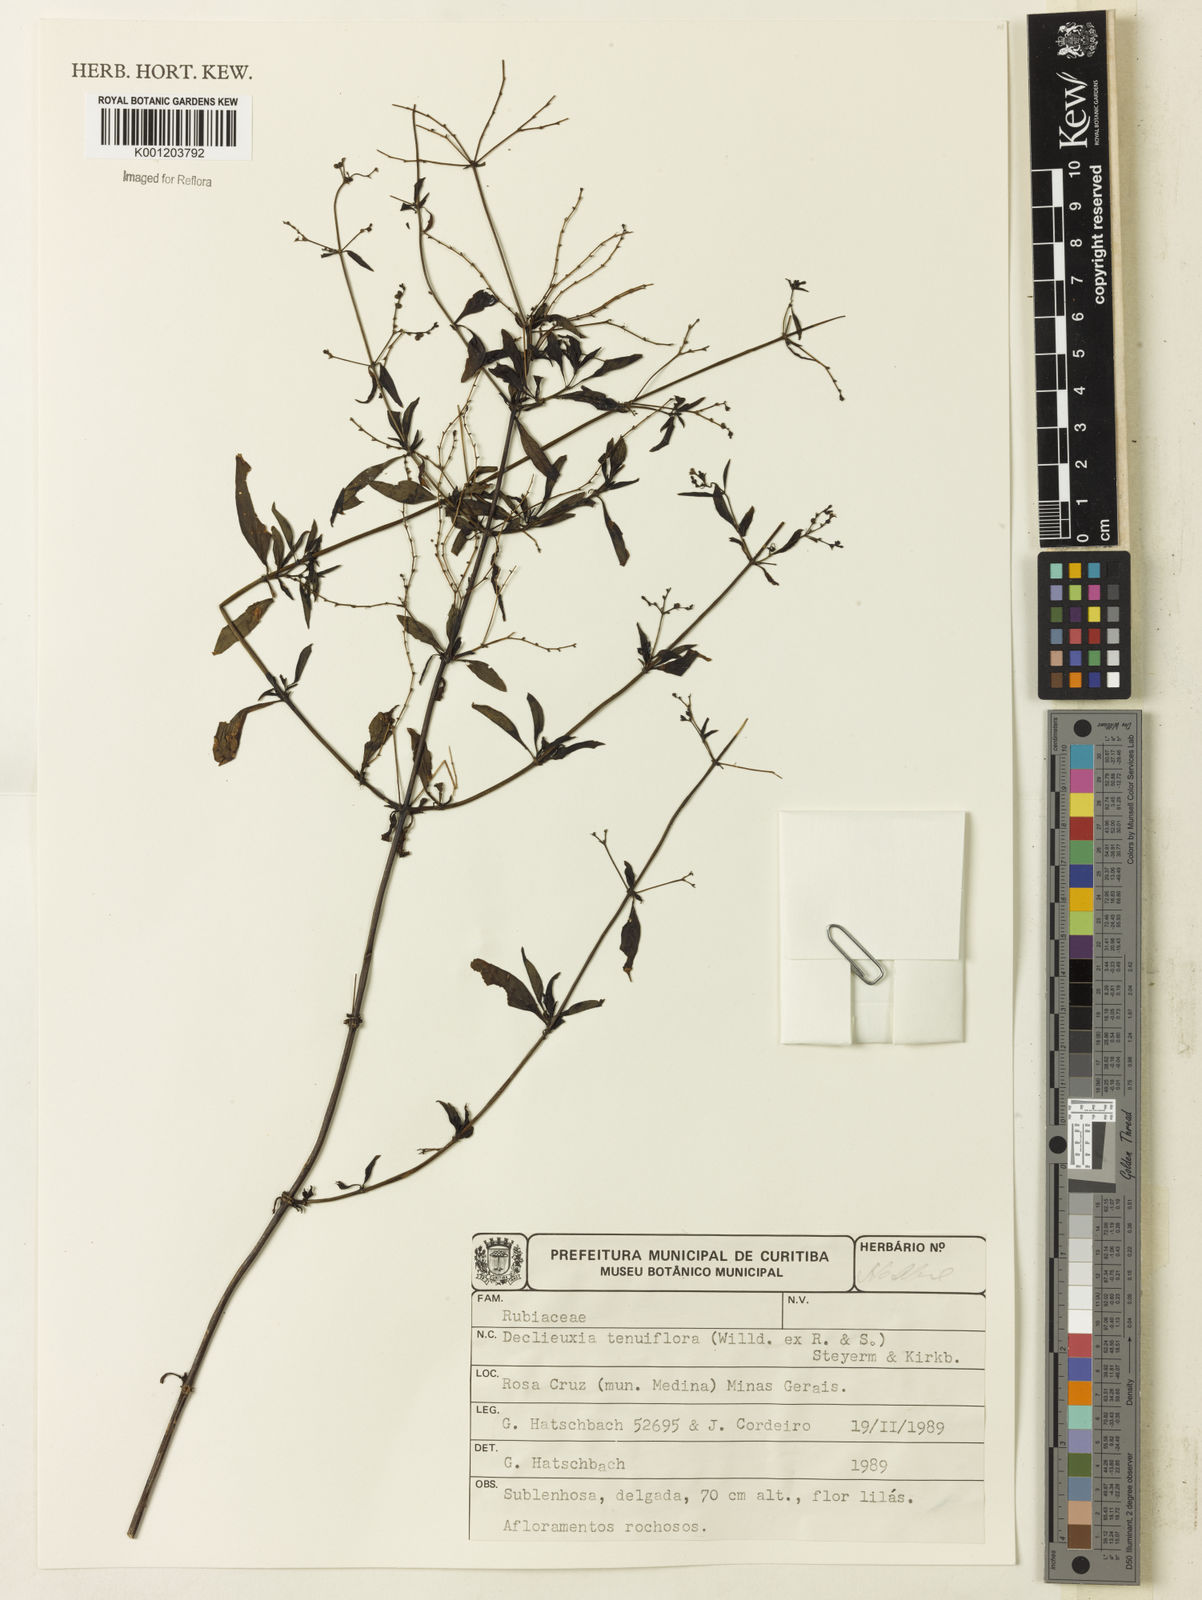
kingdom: Plantae
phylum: Tracheophyta
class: Magnoliopsida
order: Gentianales
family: Rubiaceae
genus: Declieuxia
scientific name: Declieuxia tenuiflora
